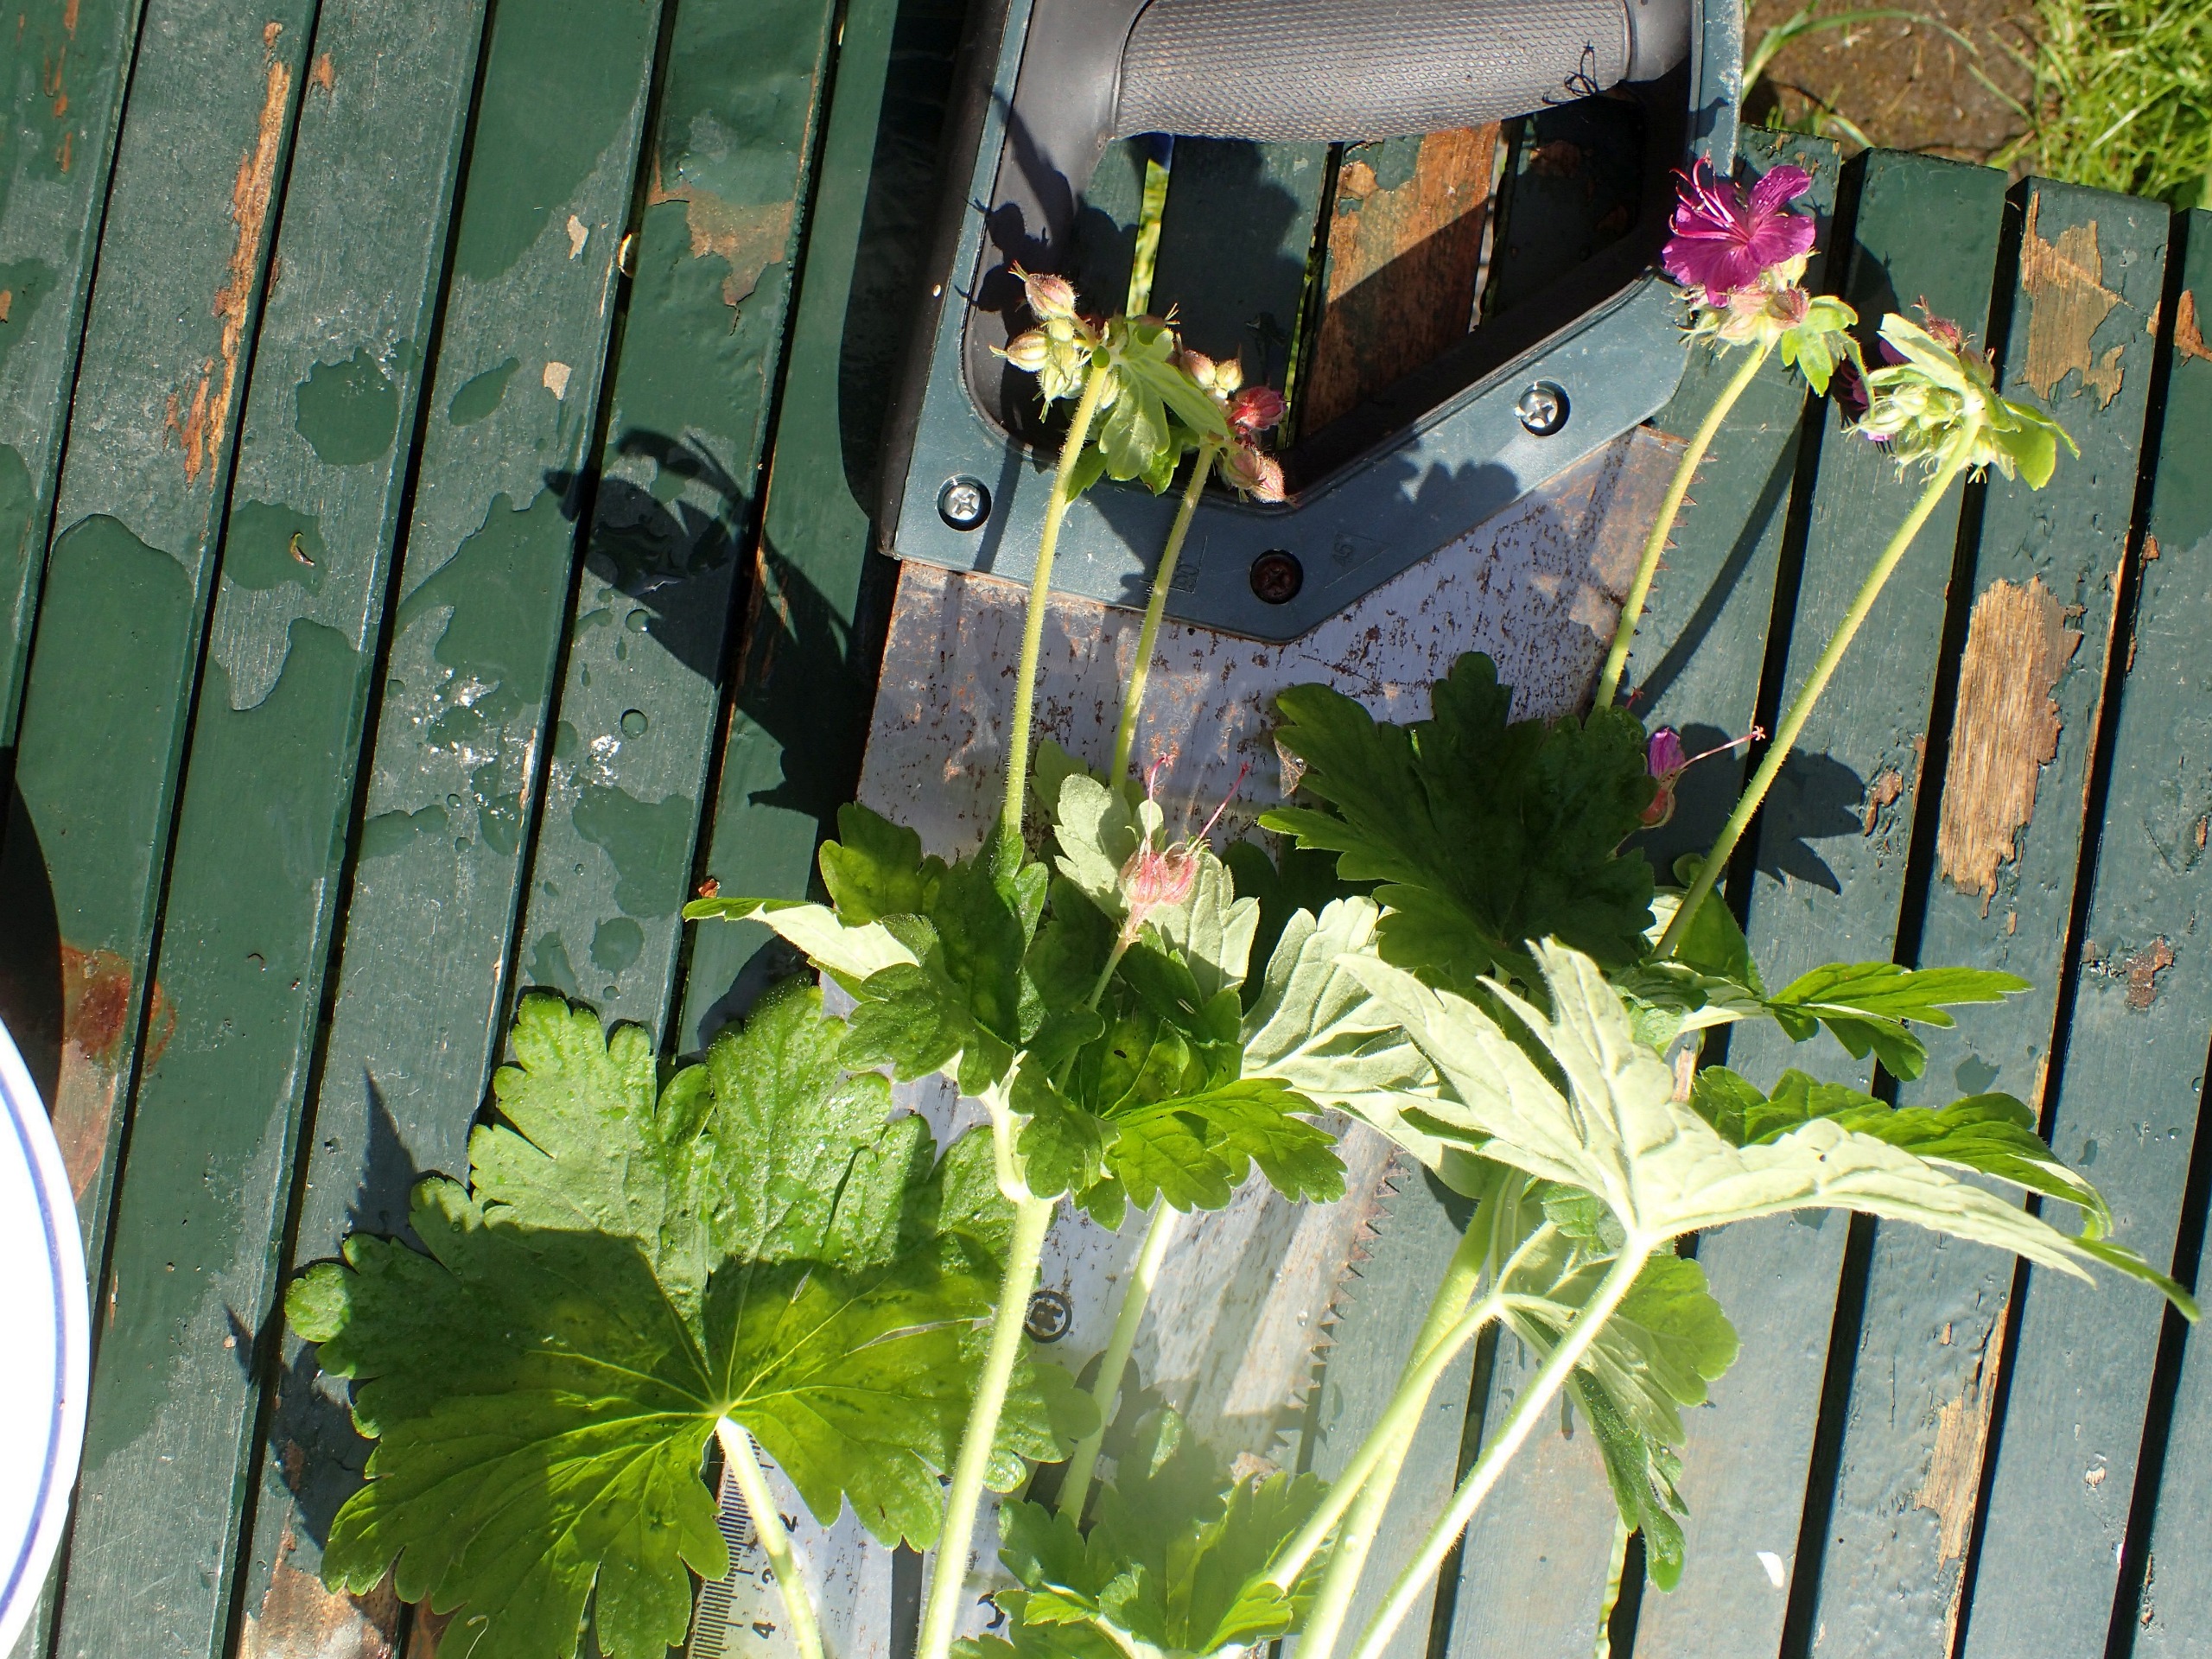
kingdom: Plantae
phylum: Tracheophyta
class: Magnoliopsida
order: Geraniales
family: Geraniaceae
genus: Geranium
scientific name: Geranium macrorrhizum
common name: Storrodet storkenæb
